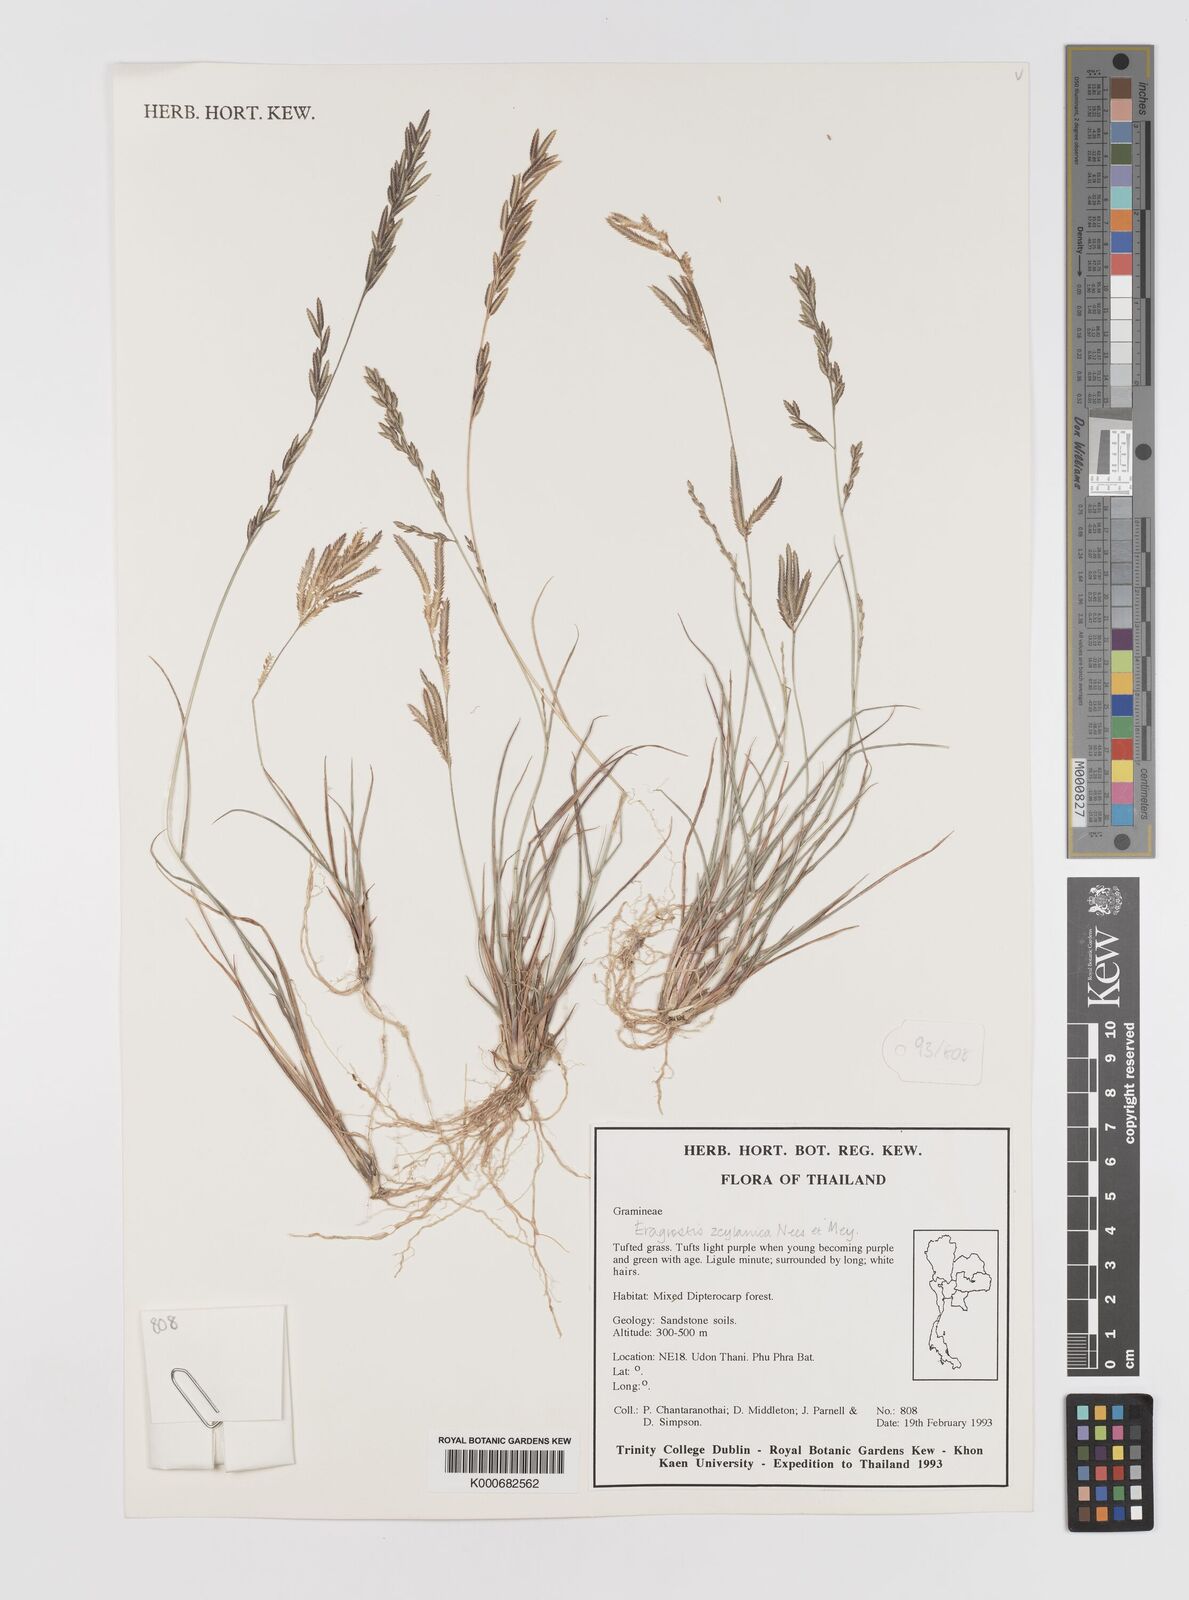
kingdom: Plantae
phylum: Tracheophyta
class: Liliopsida
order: Poales
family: Poaceae
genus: Eragrostis
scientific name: Eragrostis zeylanica
